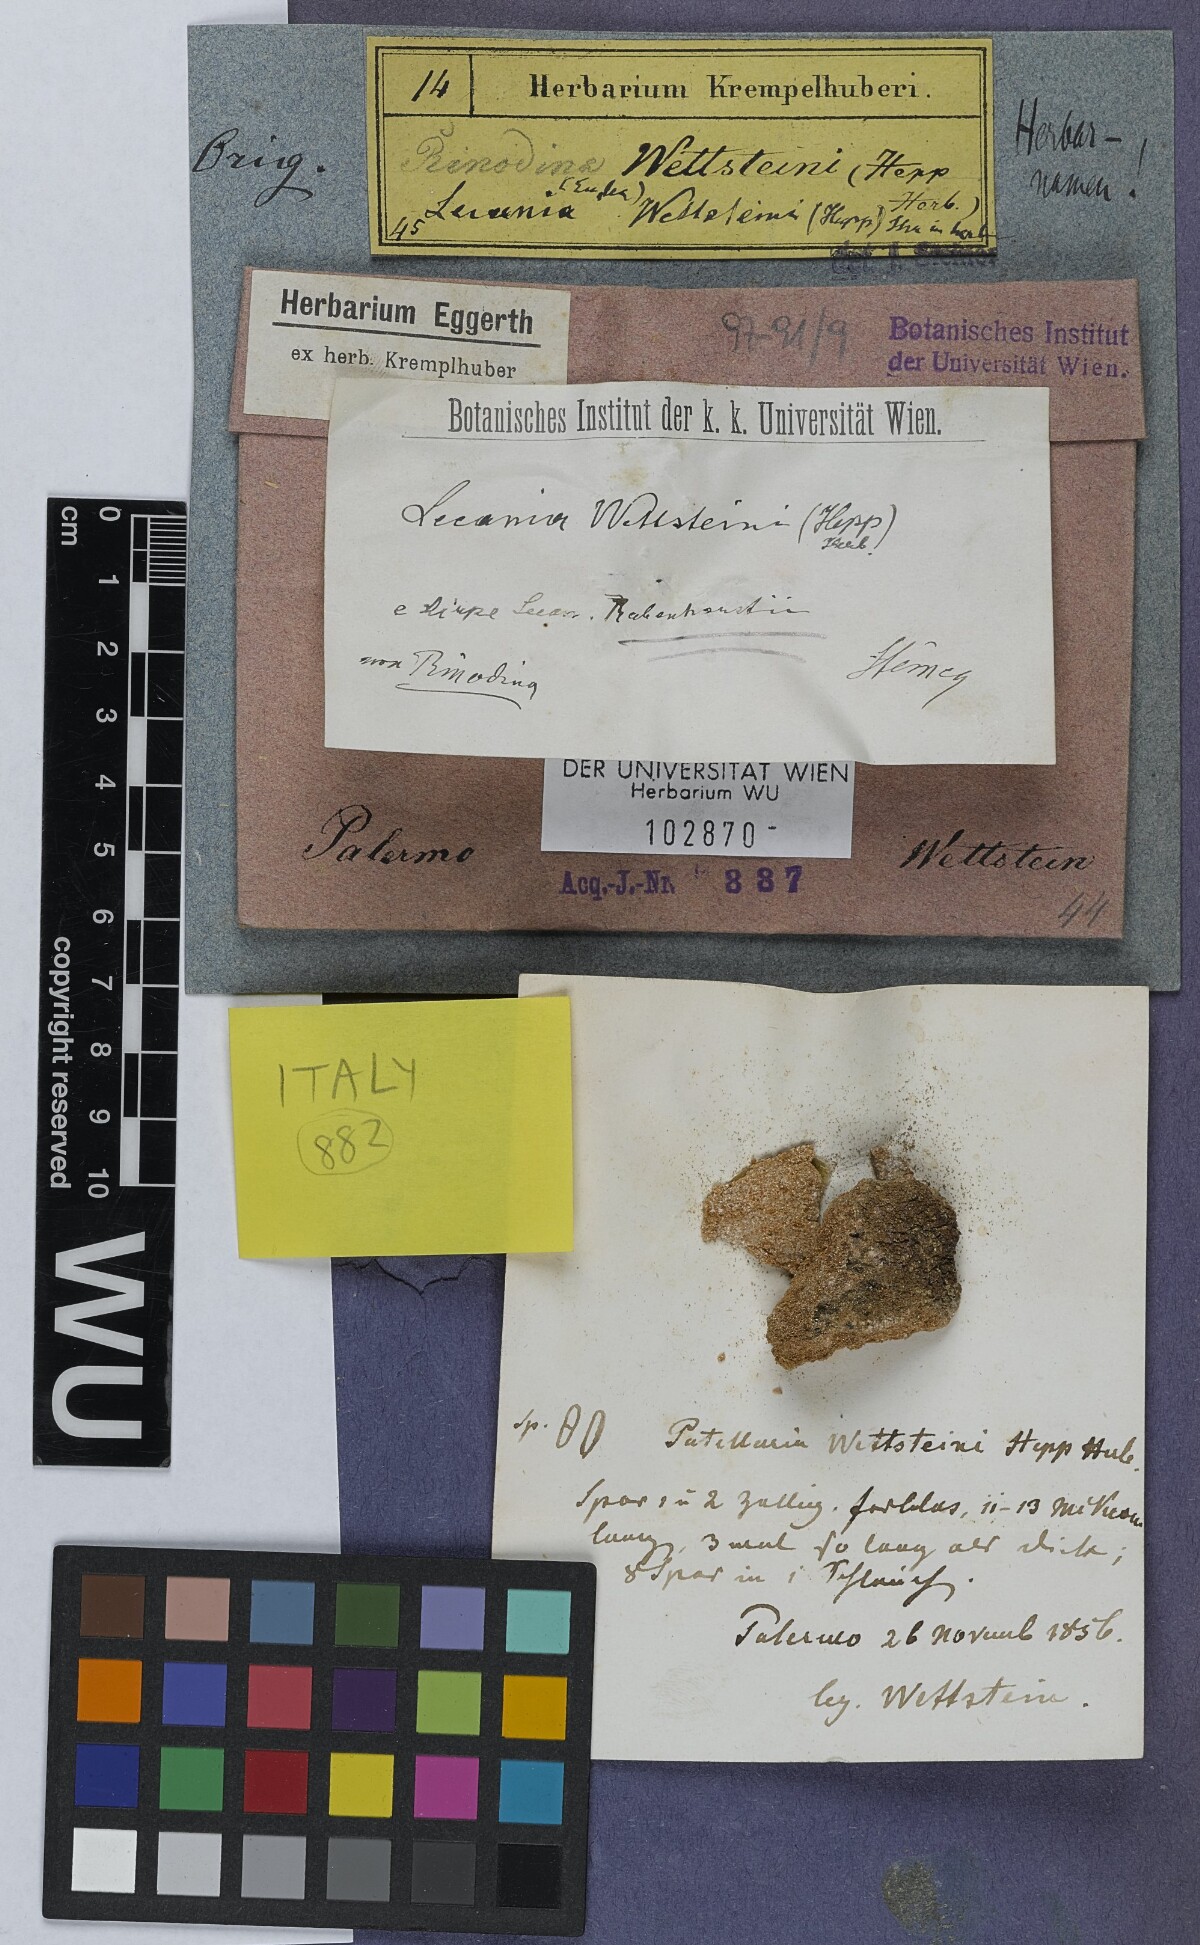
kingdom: Fungi
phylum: Ascomycota
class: Lecanoromycetes
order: Lecanorales
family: Ramalinaceae
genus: Lecania
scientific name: Lecania
